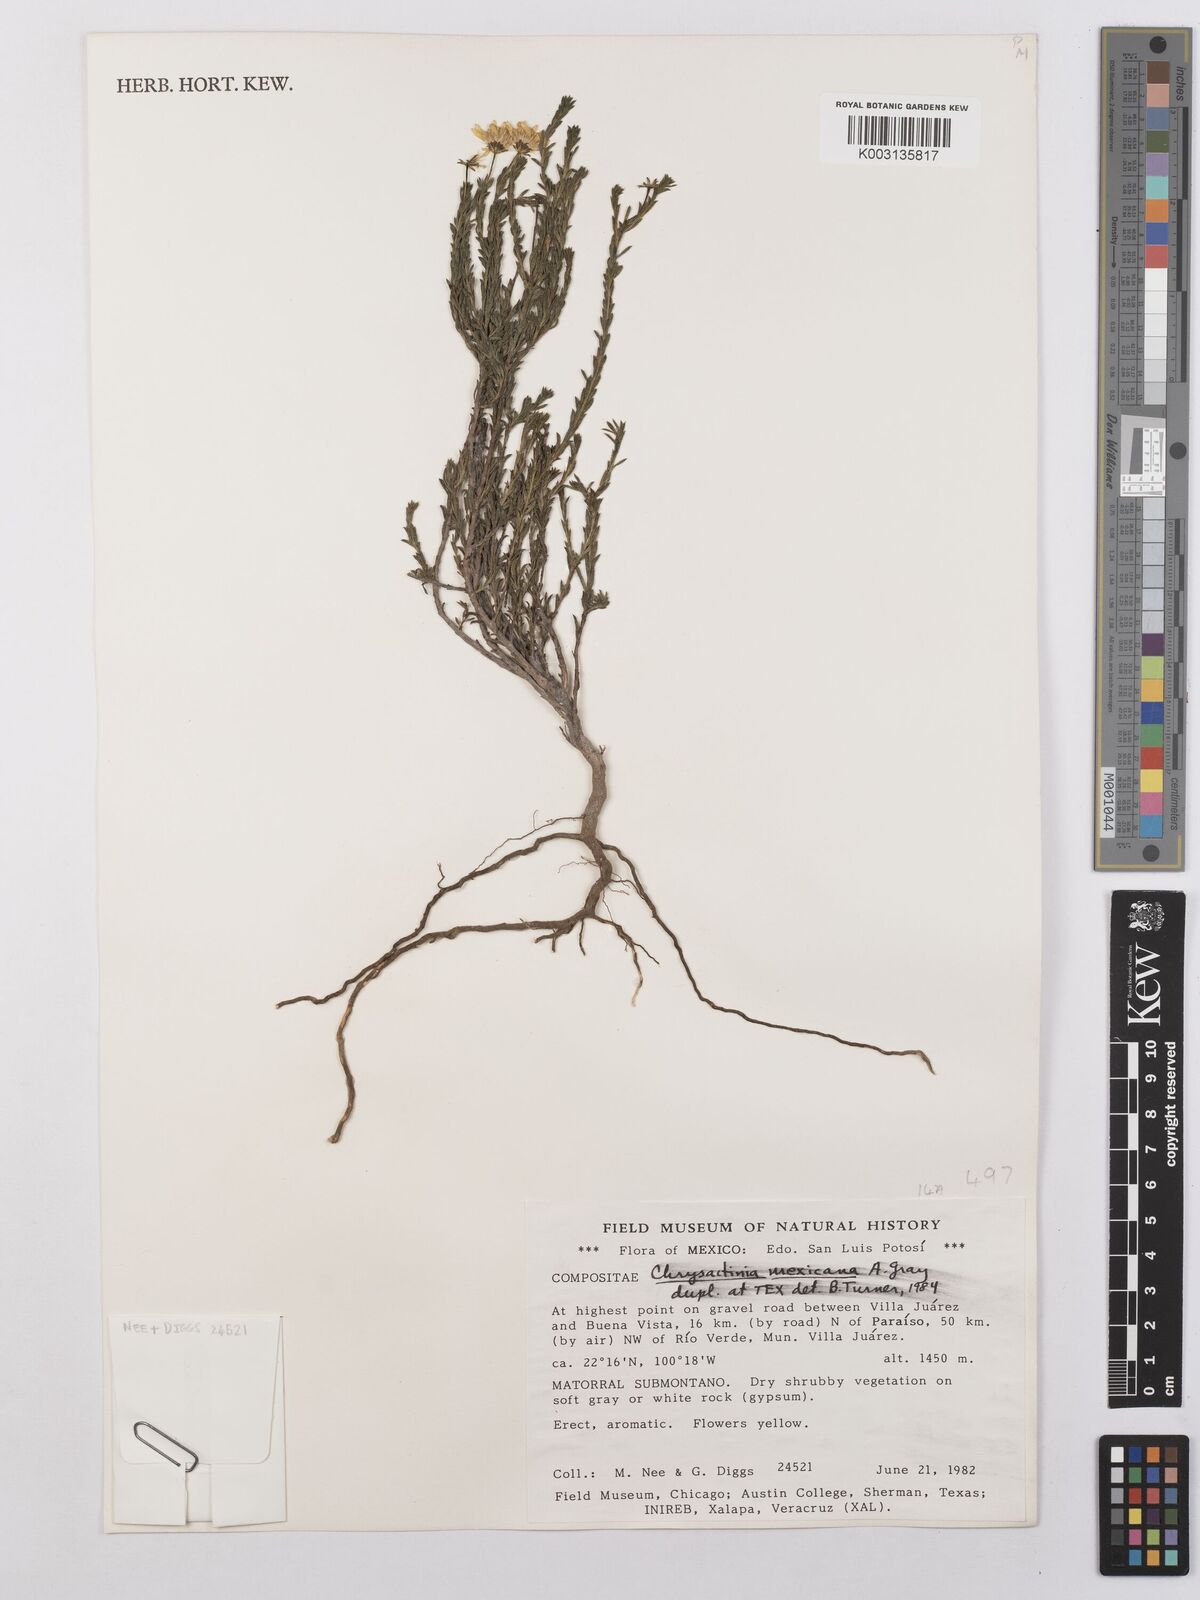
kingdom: Plantae
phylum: Tracheophyta
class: Magnoliopsida
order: Asterales
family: Asteraceae
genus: Chrysactinia
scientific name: Chrysactinia mexicana
